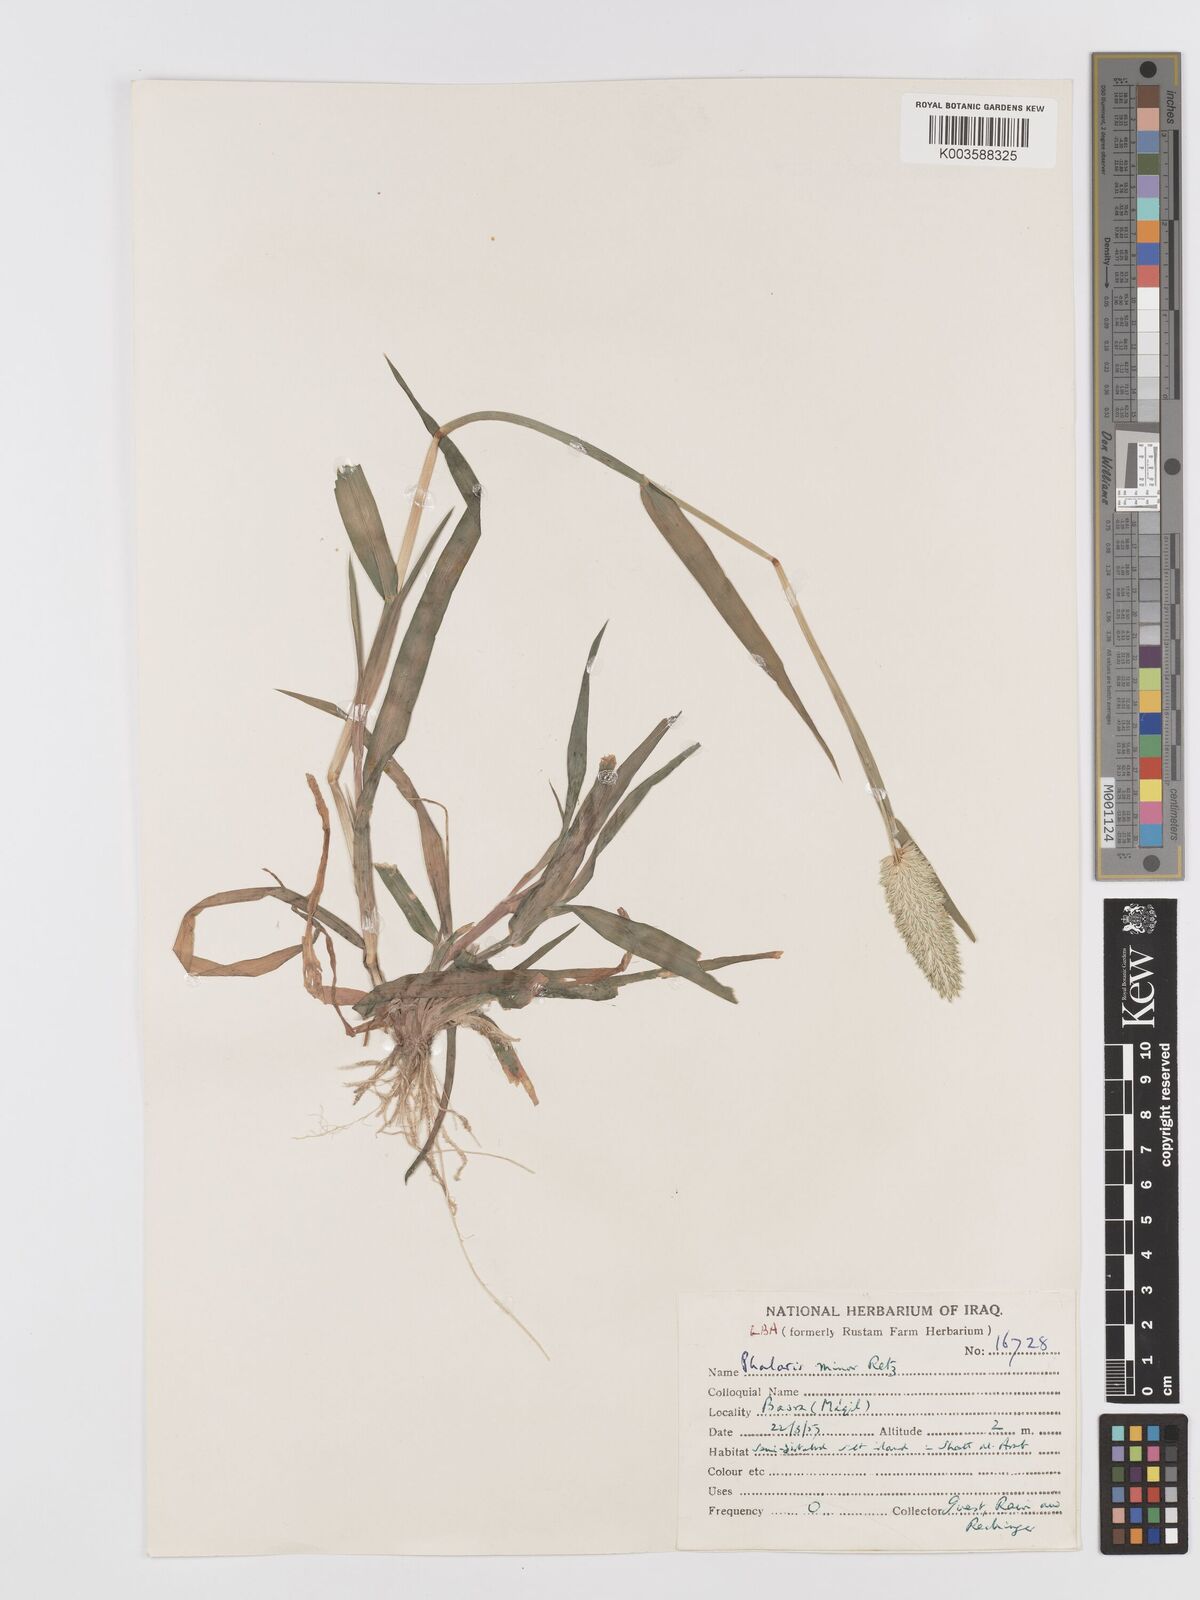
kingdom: Plantae
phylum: Tracheophyta
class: Liliopsida
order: Poales
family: Poaceae
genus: Phalaris
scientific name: Phalaris minor
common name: Littleseed canarygrass
